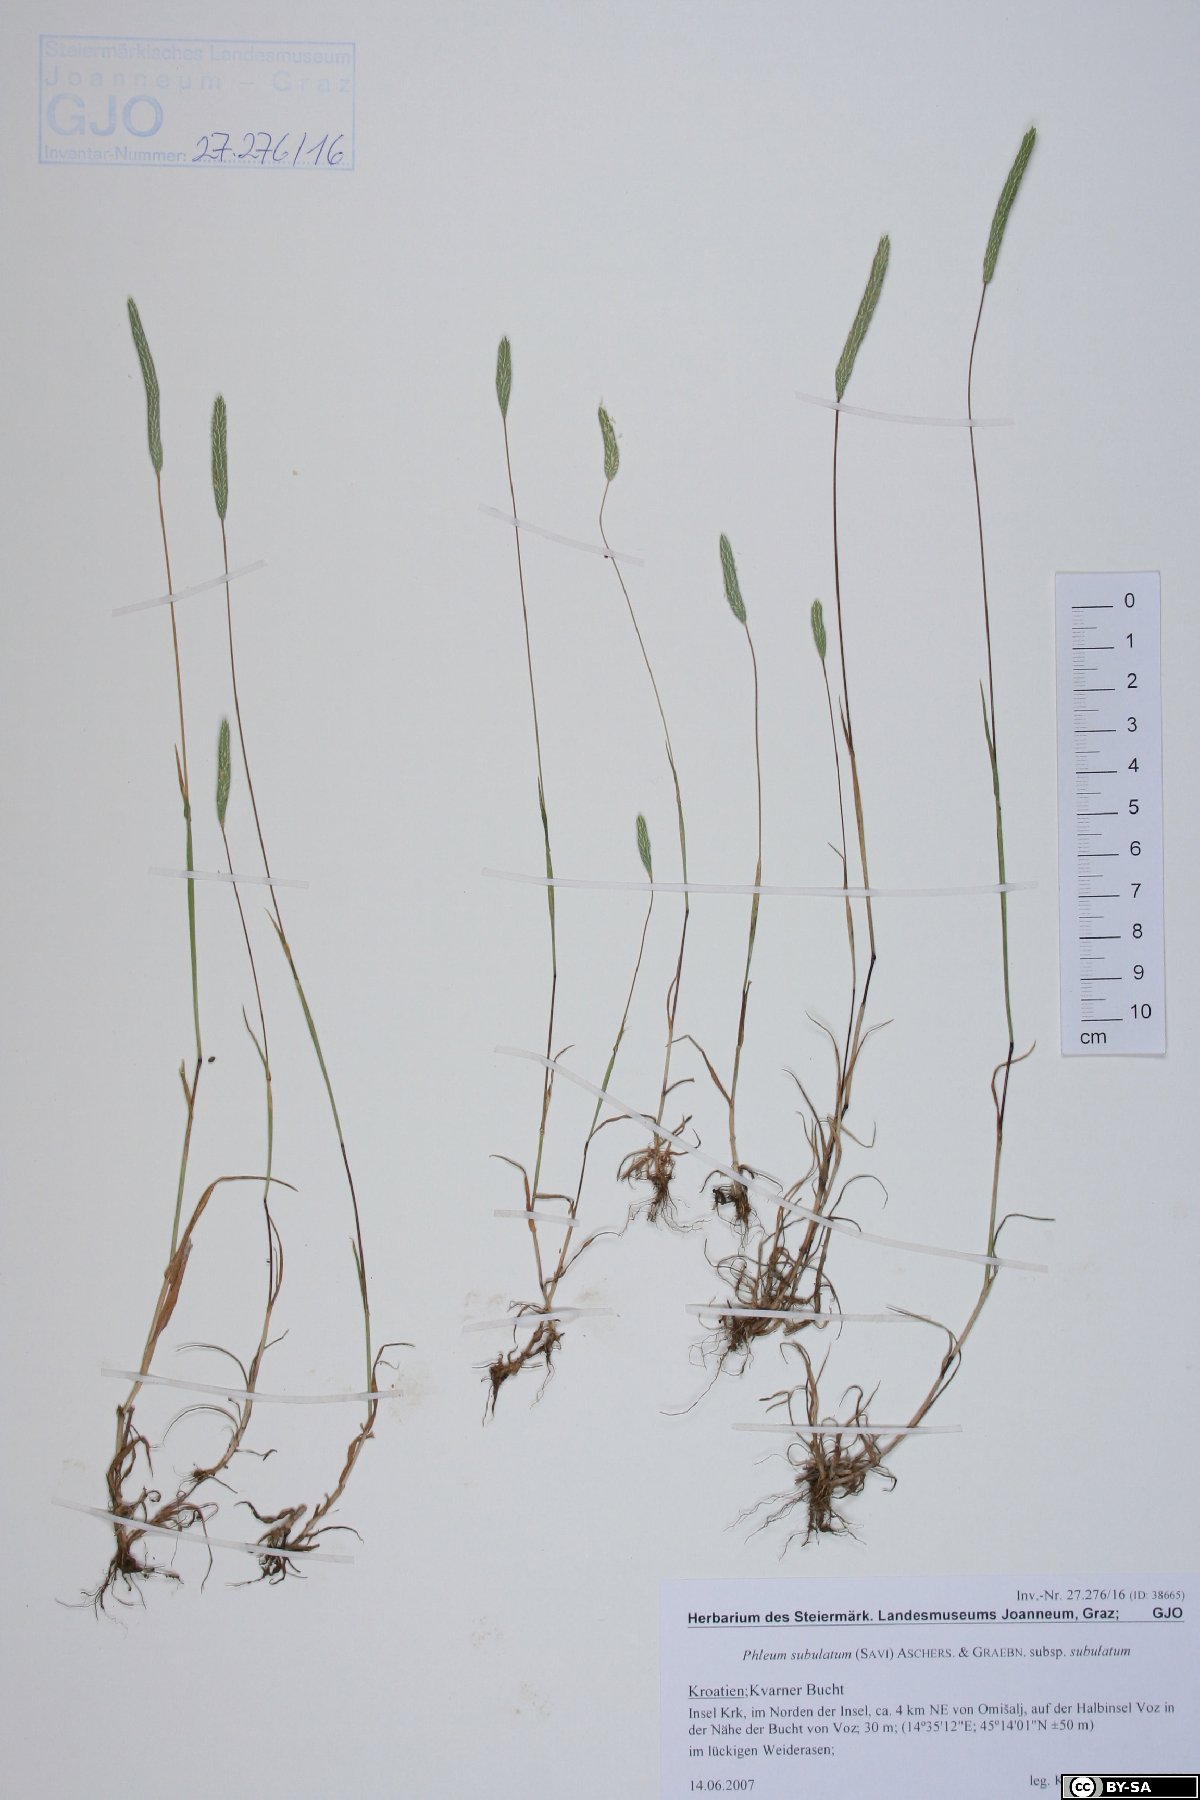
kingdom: Plantae
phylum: Tracheophyta
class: Liliopsida
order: Poales
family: Poaceae
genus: Phleum
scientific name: Phleum subulatum
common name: Italian timothy
